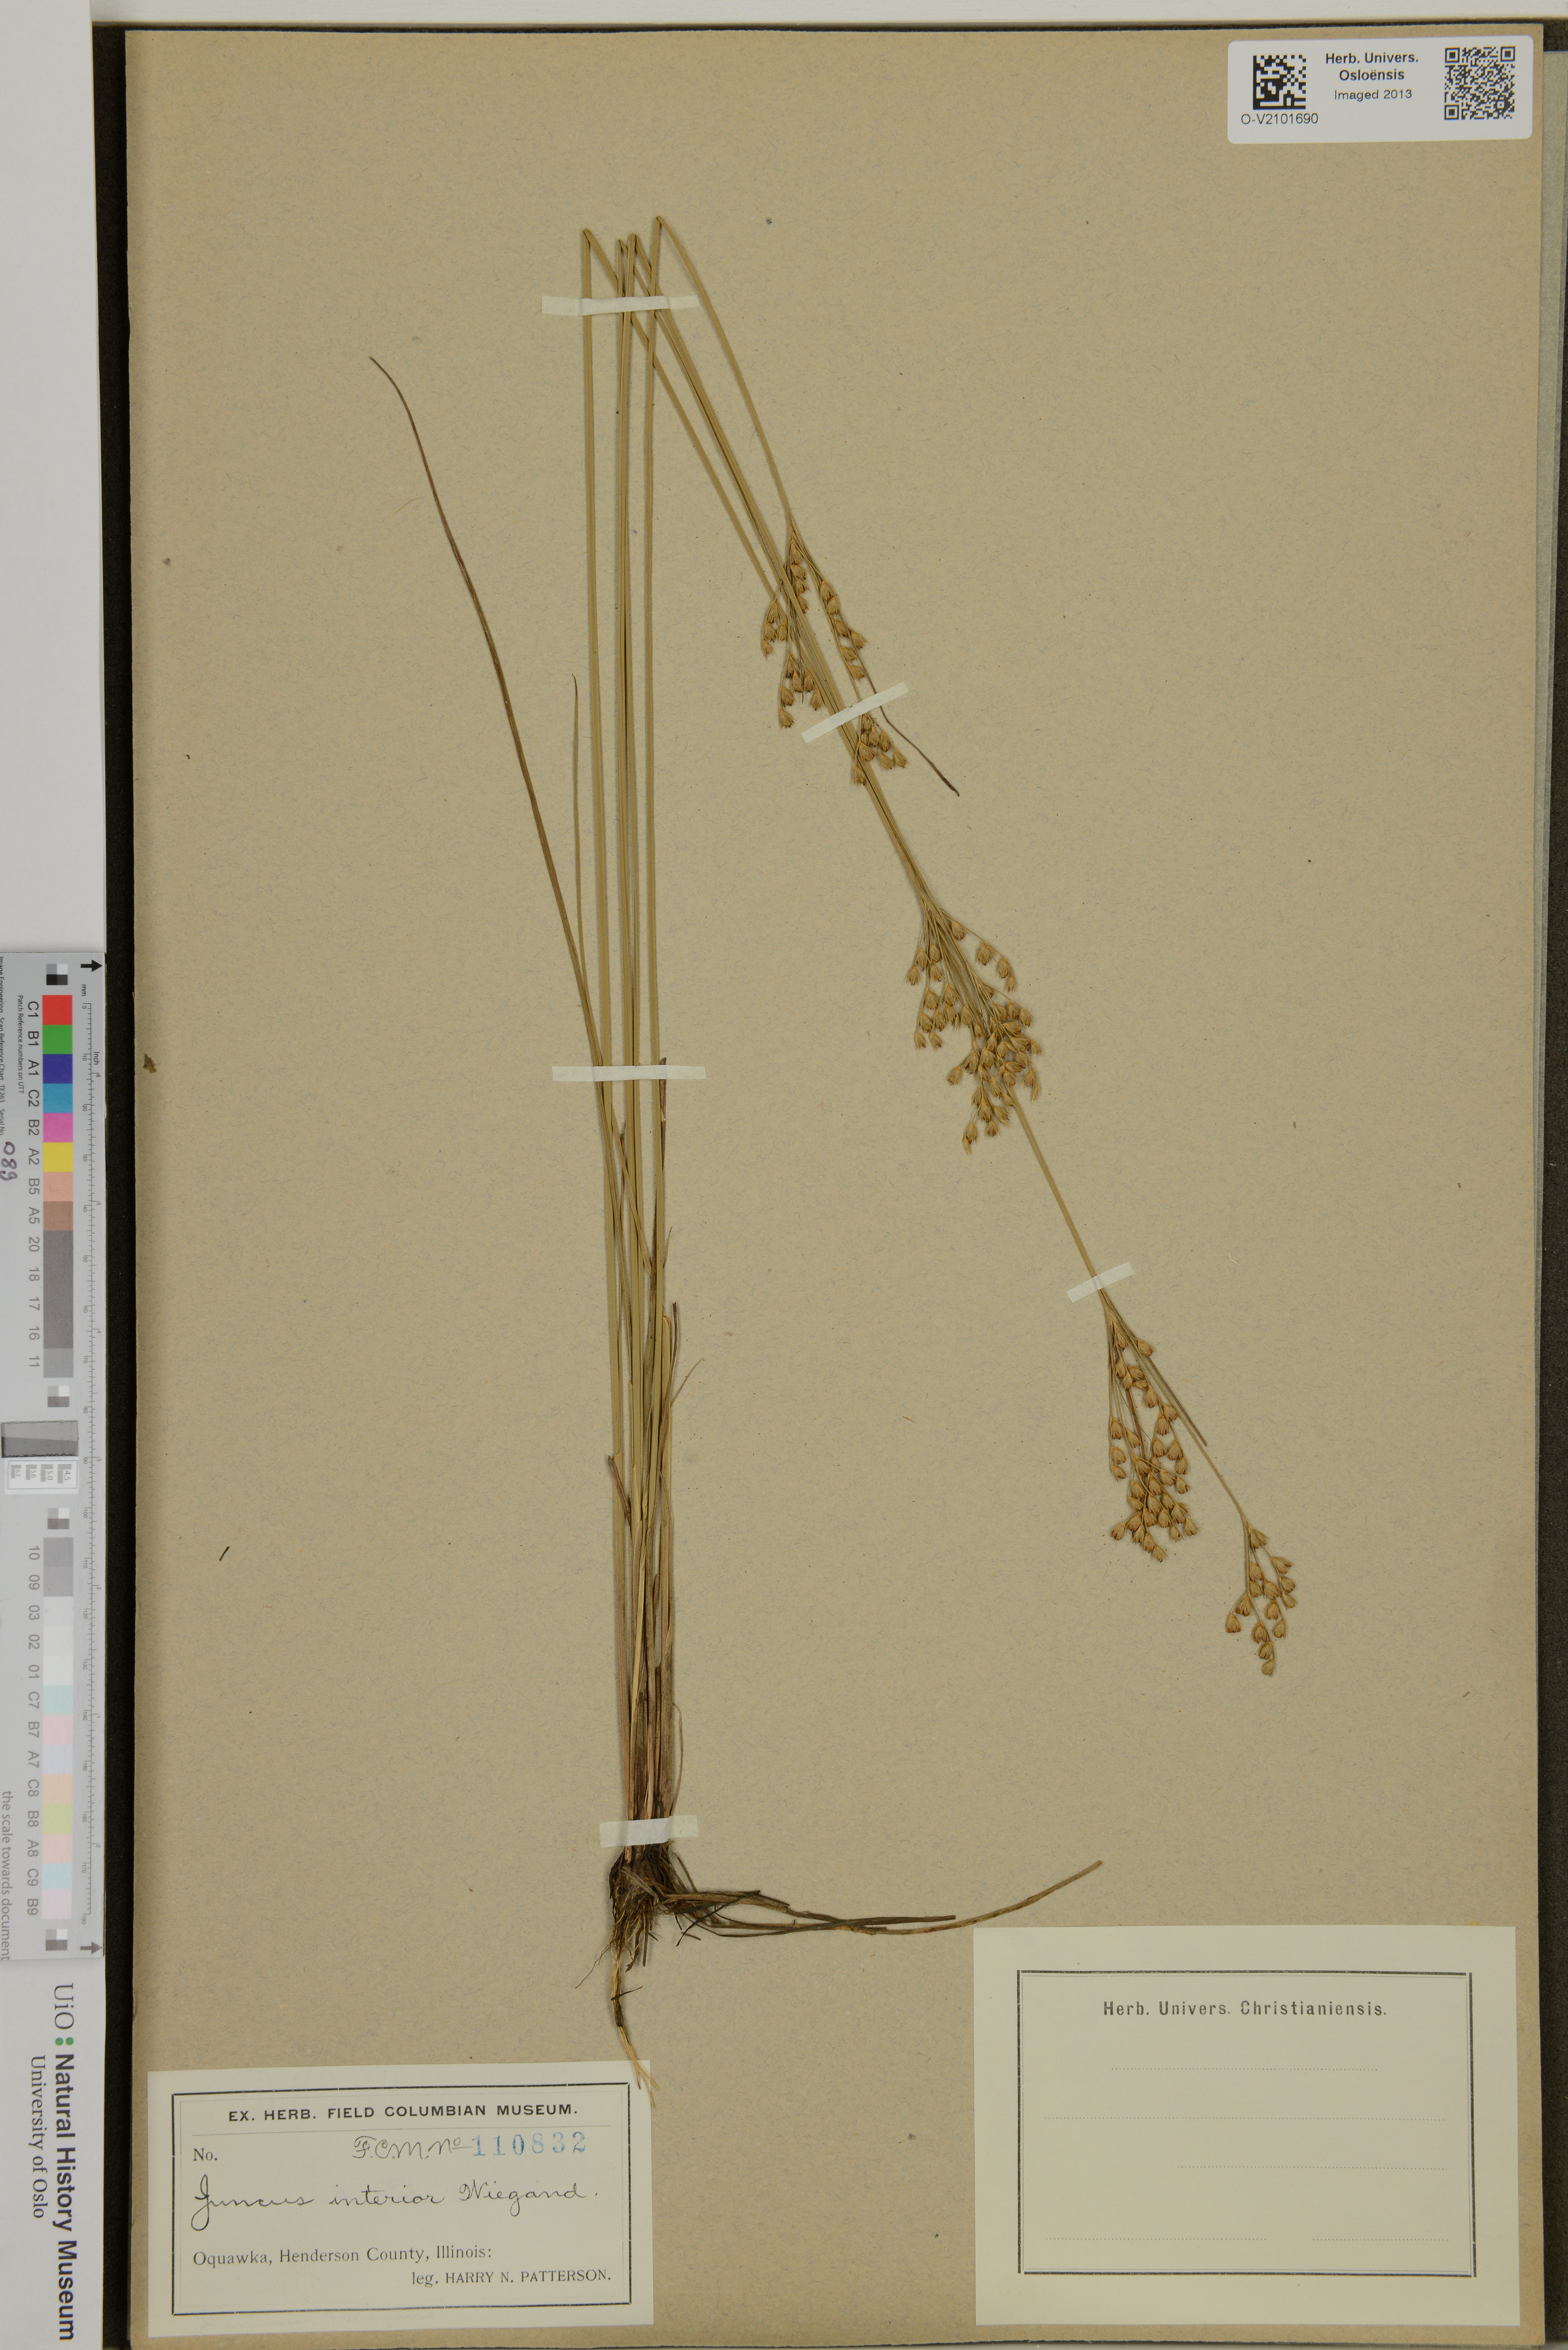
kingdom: Plantae
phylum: Tracheophyta
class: Liliopsida
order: Poales
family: Juncaceae
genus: Juncus
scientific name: Juncus interior
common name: Interior rush
